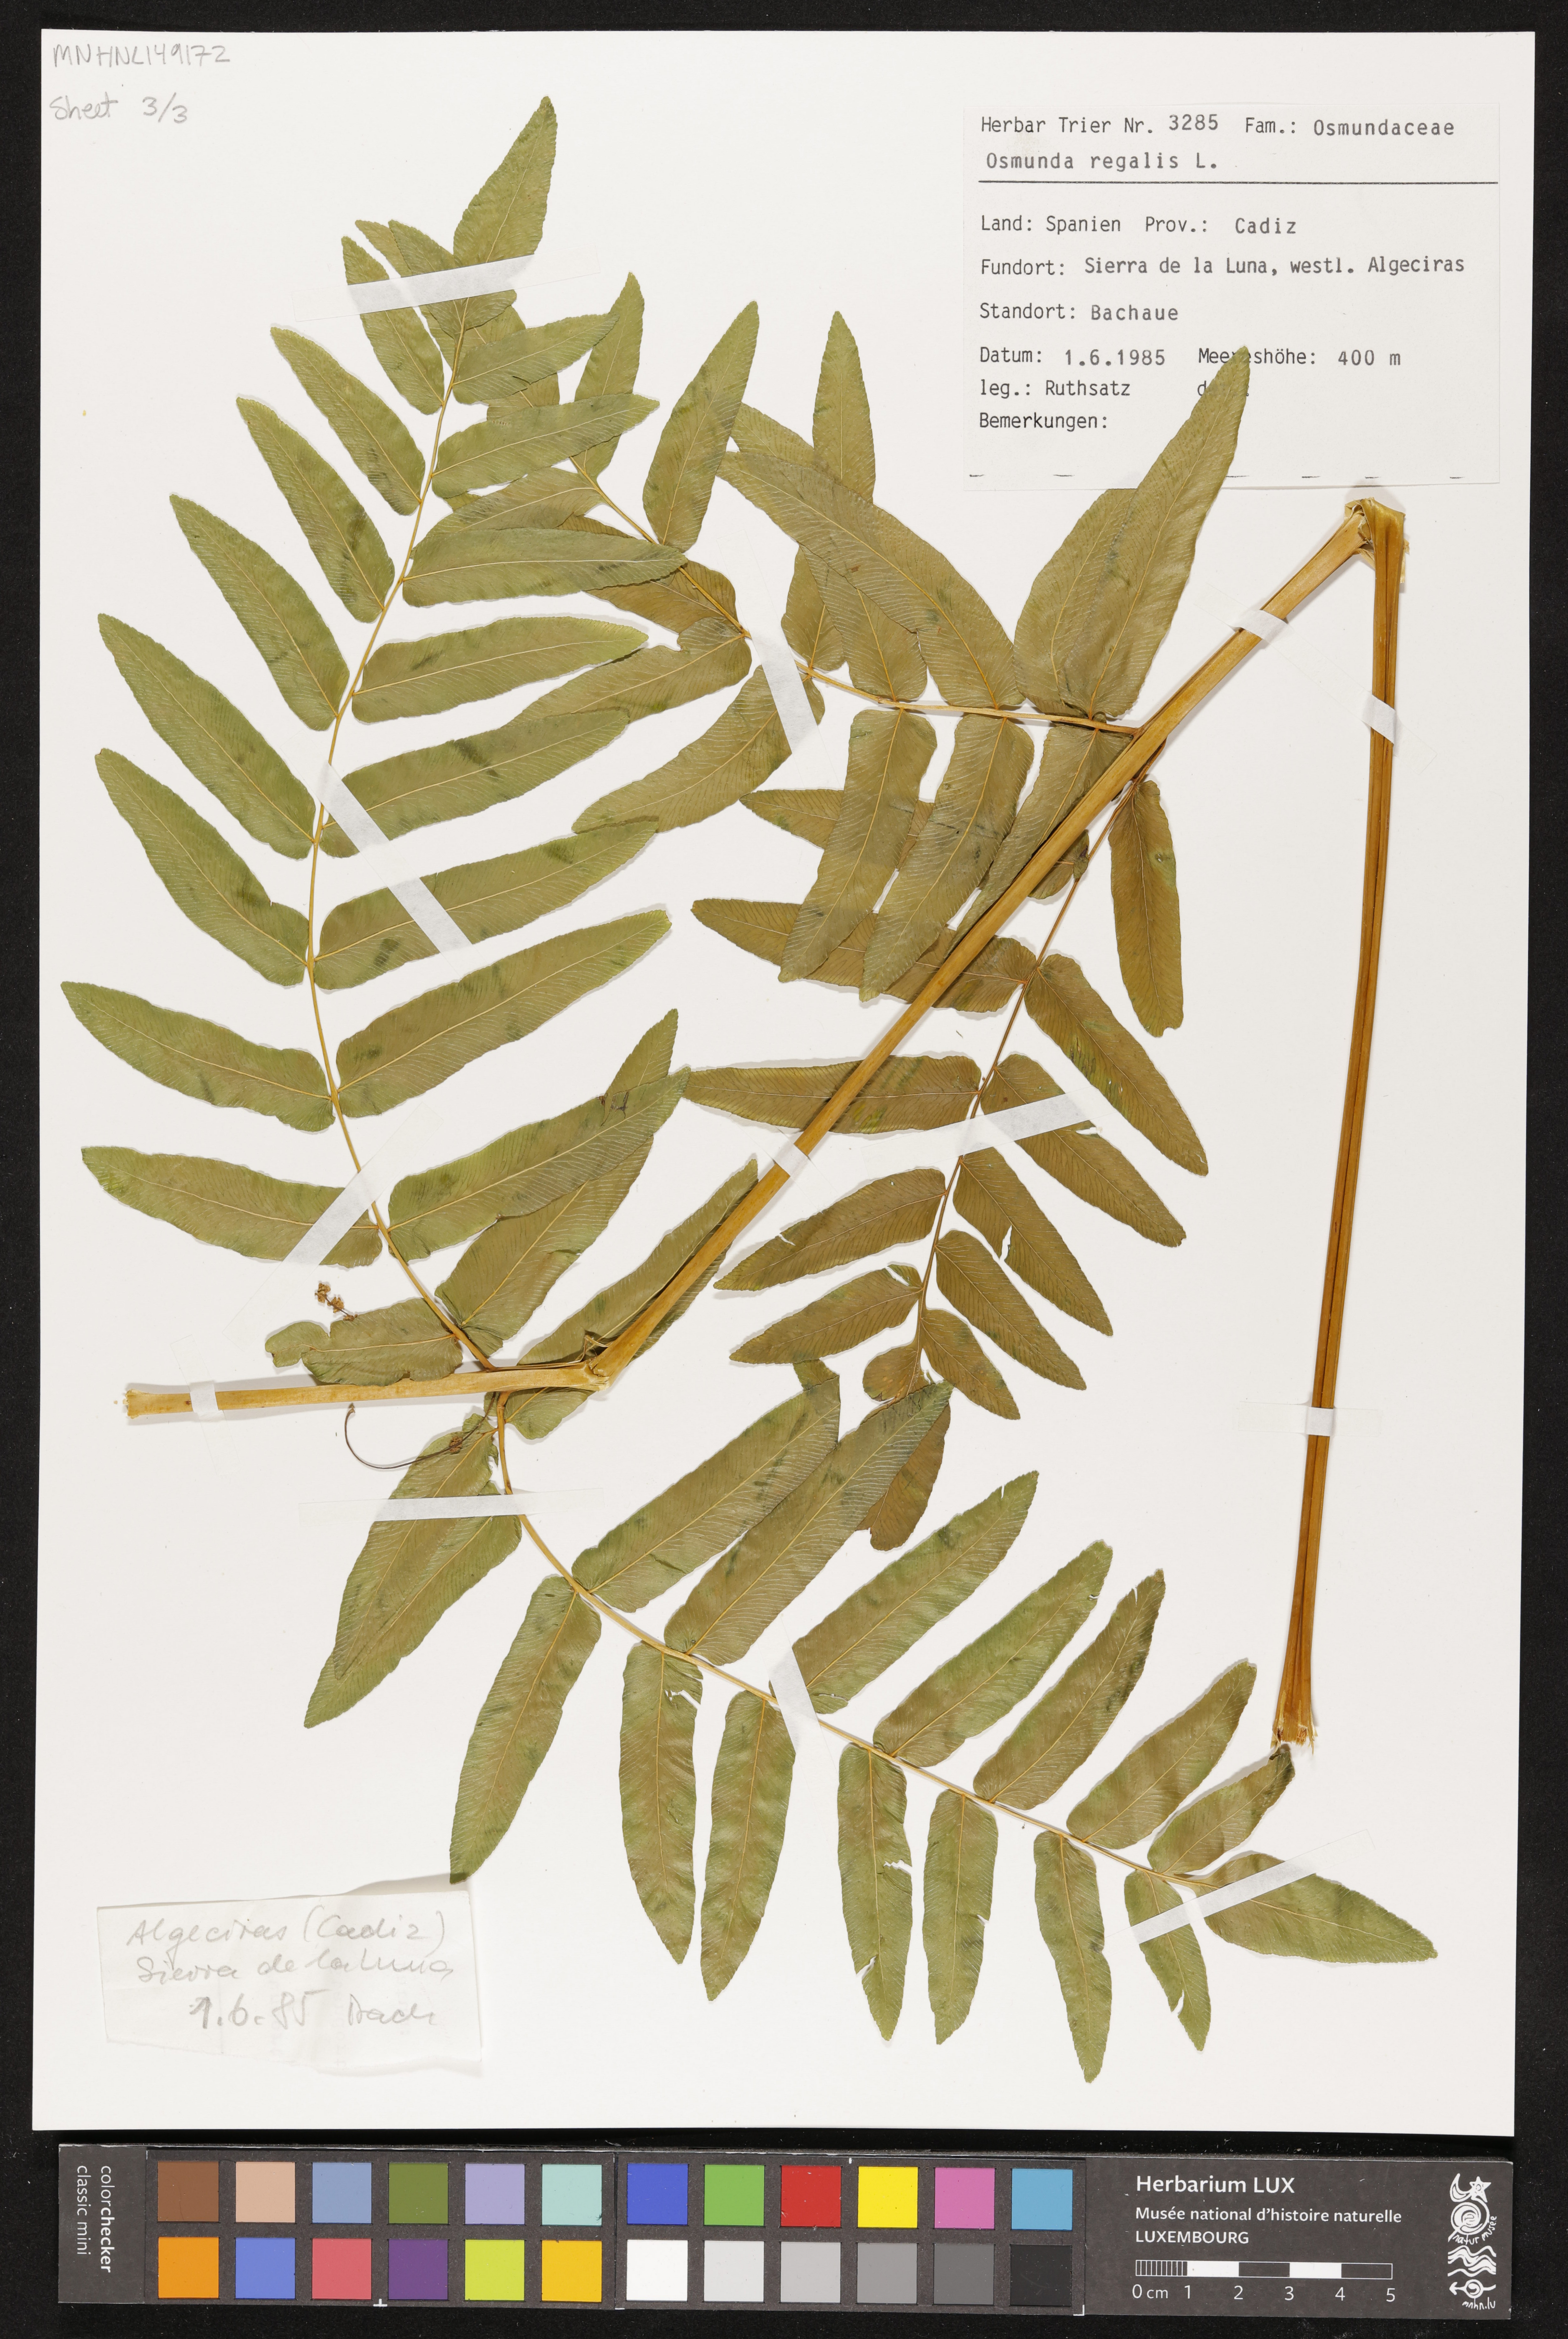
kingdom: Plantae
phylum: Tracheophyta
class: Polypodiopsida
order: Osmundales
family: Osmundaceae
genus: Osmunda
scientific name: Osmunda regalis
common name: Royal fern
